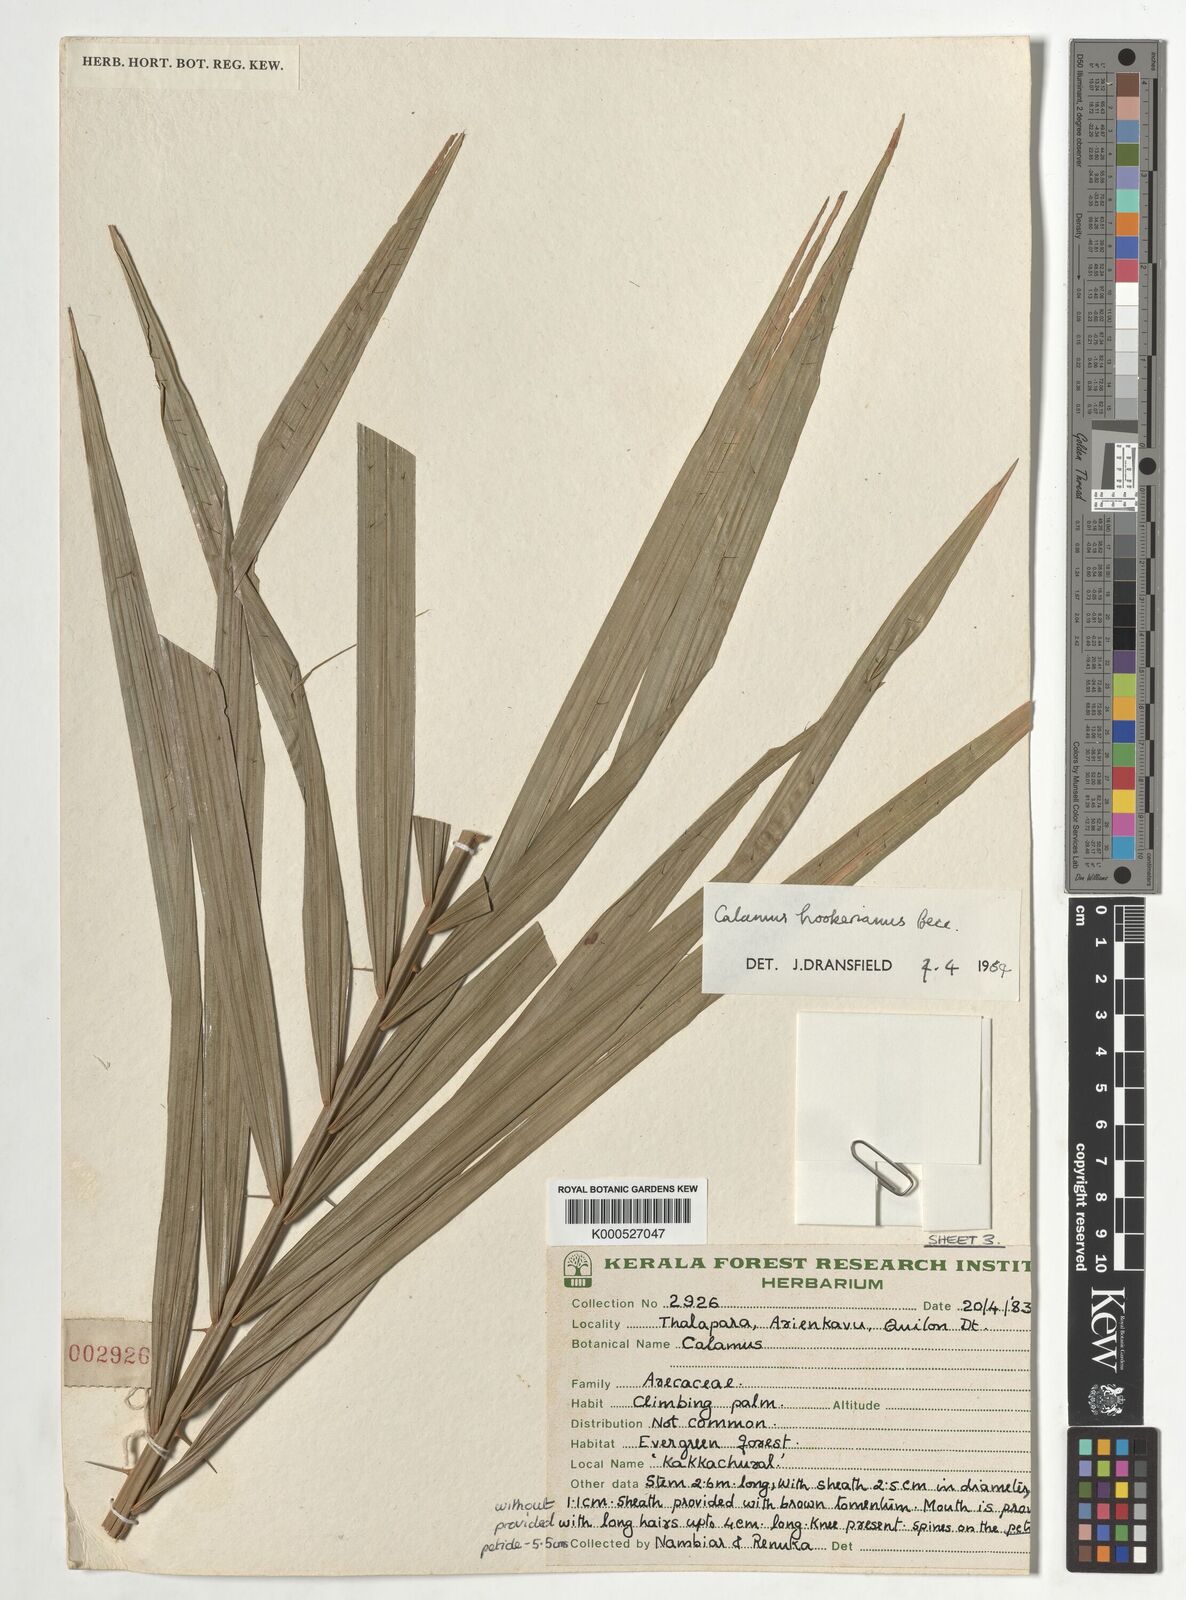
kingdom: Plantae
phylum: Tracheophyta
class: Liliopsida
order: Arecales
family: Arecaceae
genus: Calamus
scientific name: Calamus hookerianus
